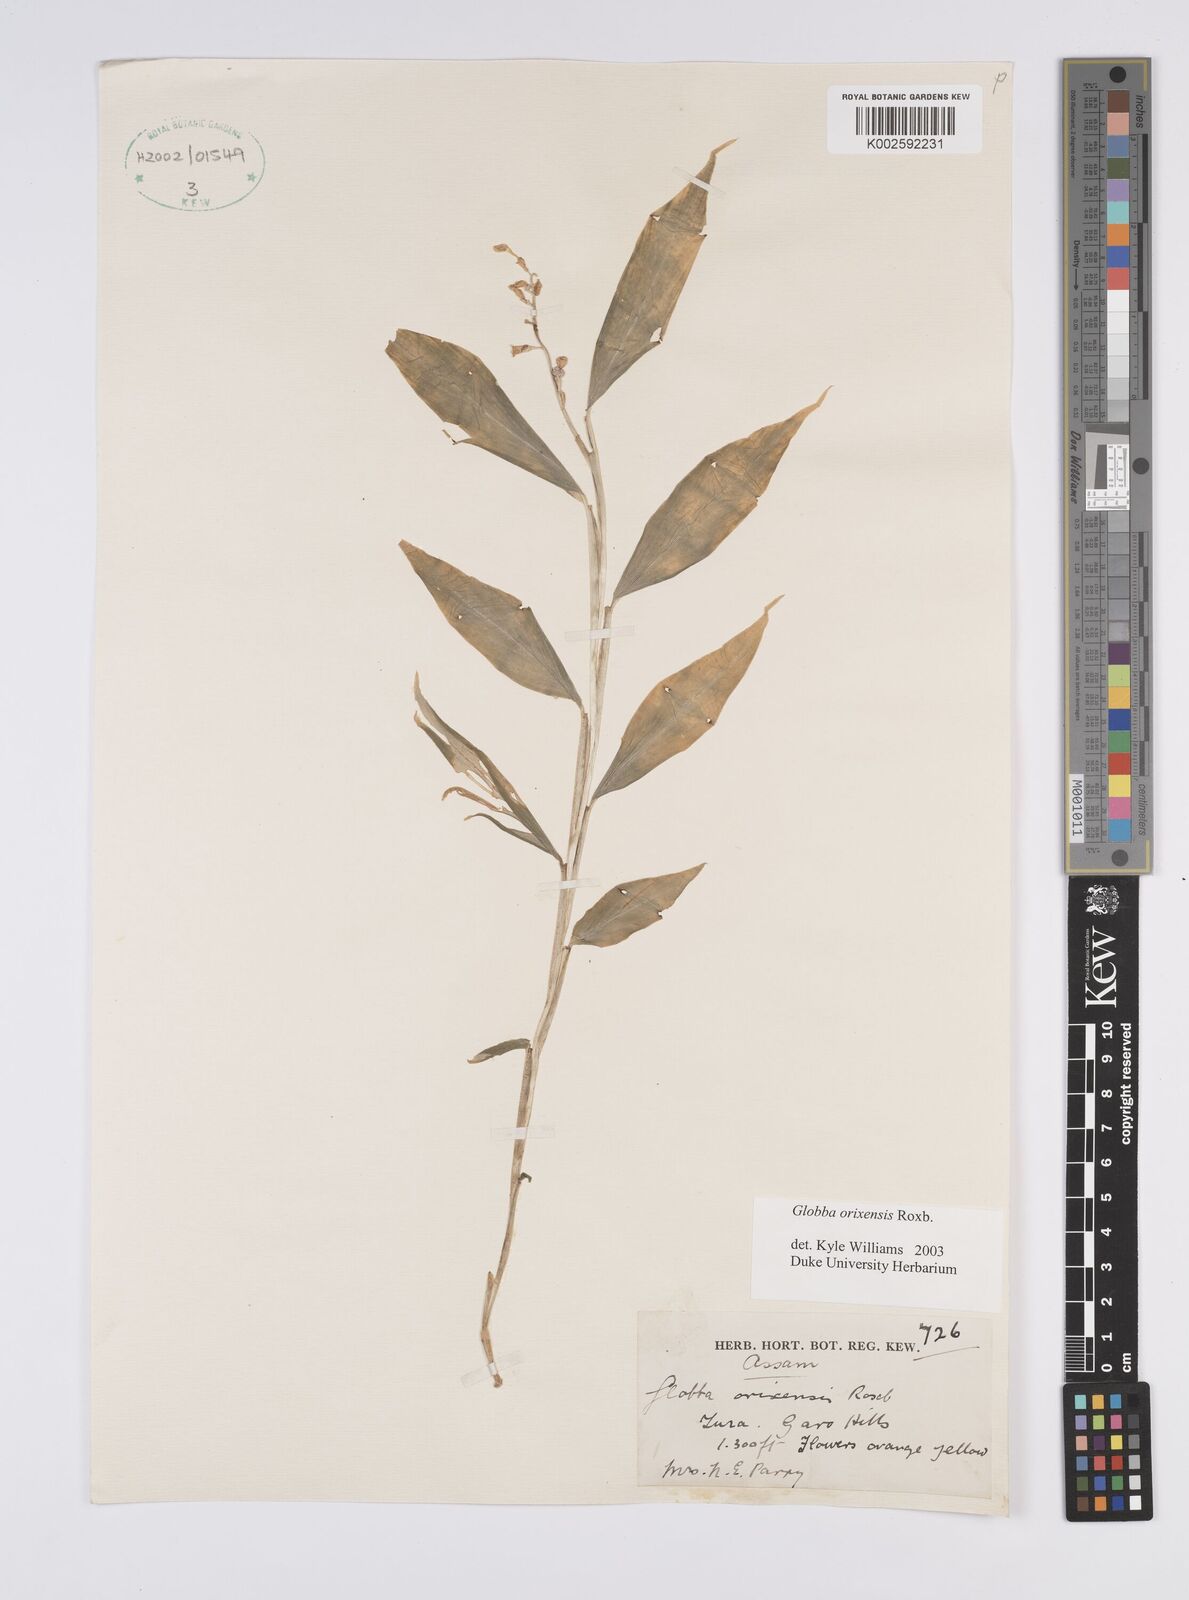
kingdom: Plantae
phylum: Tracheophyta
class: Liliopsida
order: Zingiberales
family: Zingiberaceae
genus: Globba
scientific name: Globba orixensis
